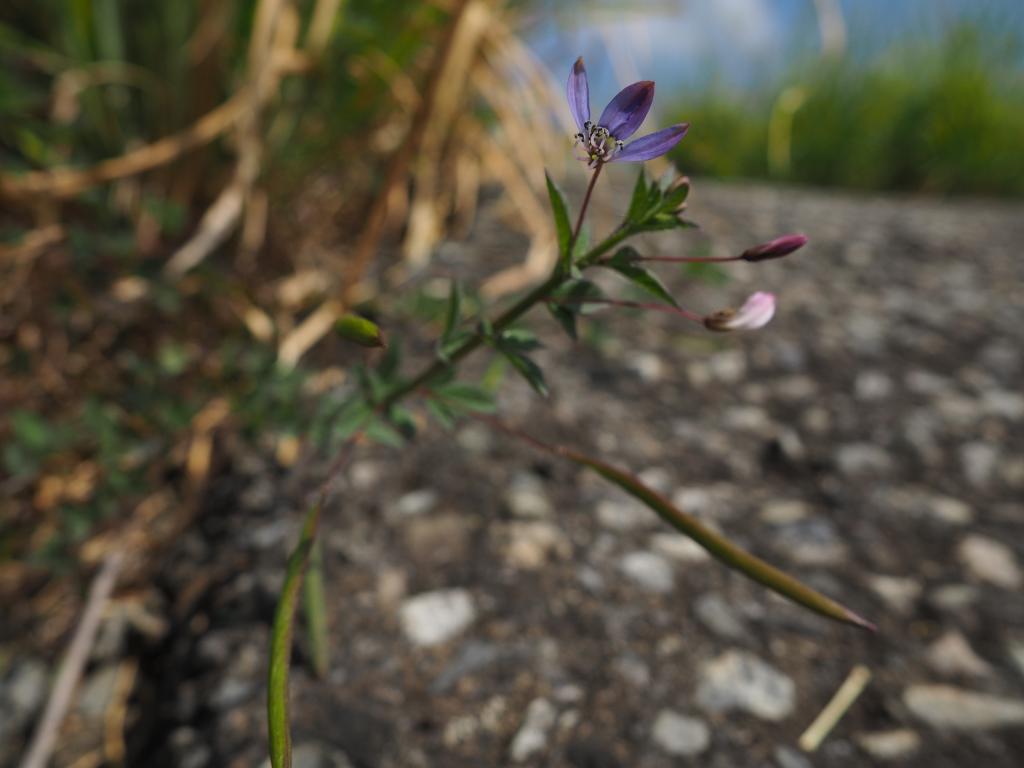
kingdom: Plantae
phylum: Tracheophyta
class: Magnoliopsida
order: Brassicales
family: Cleomaceae
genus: Sieruela
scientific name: Sieruela rutidosperma
